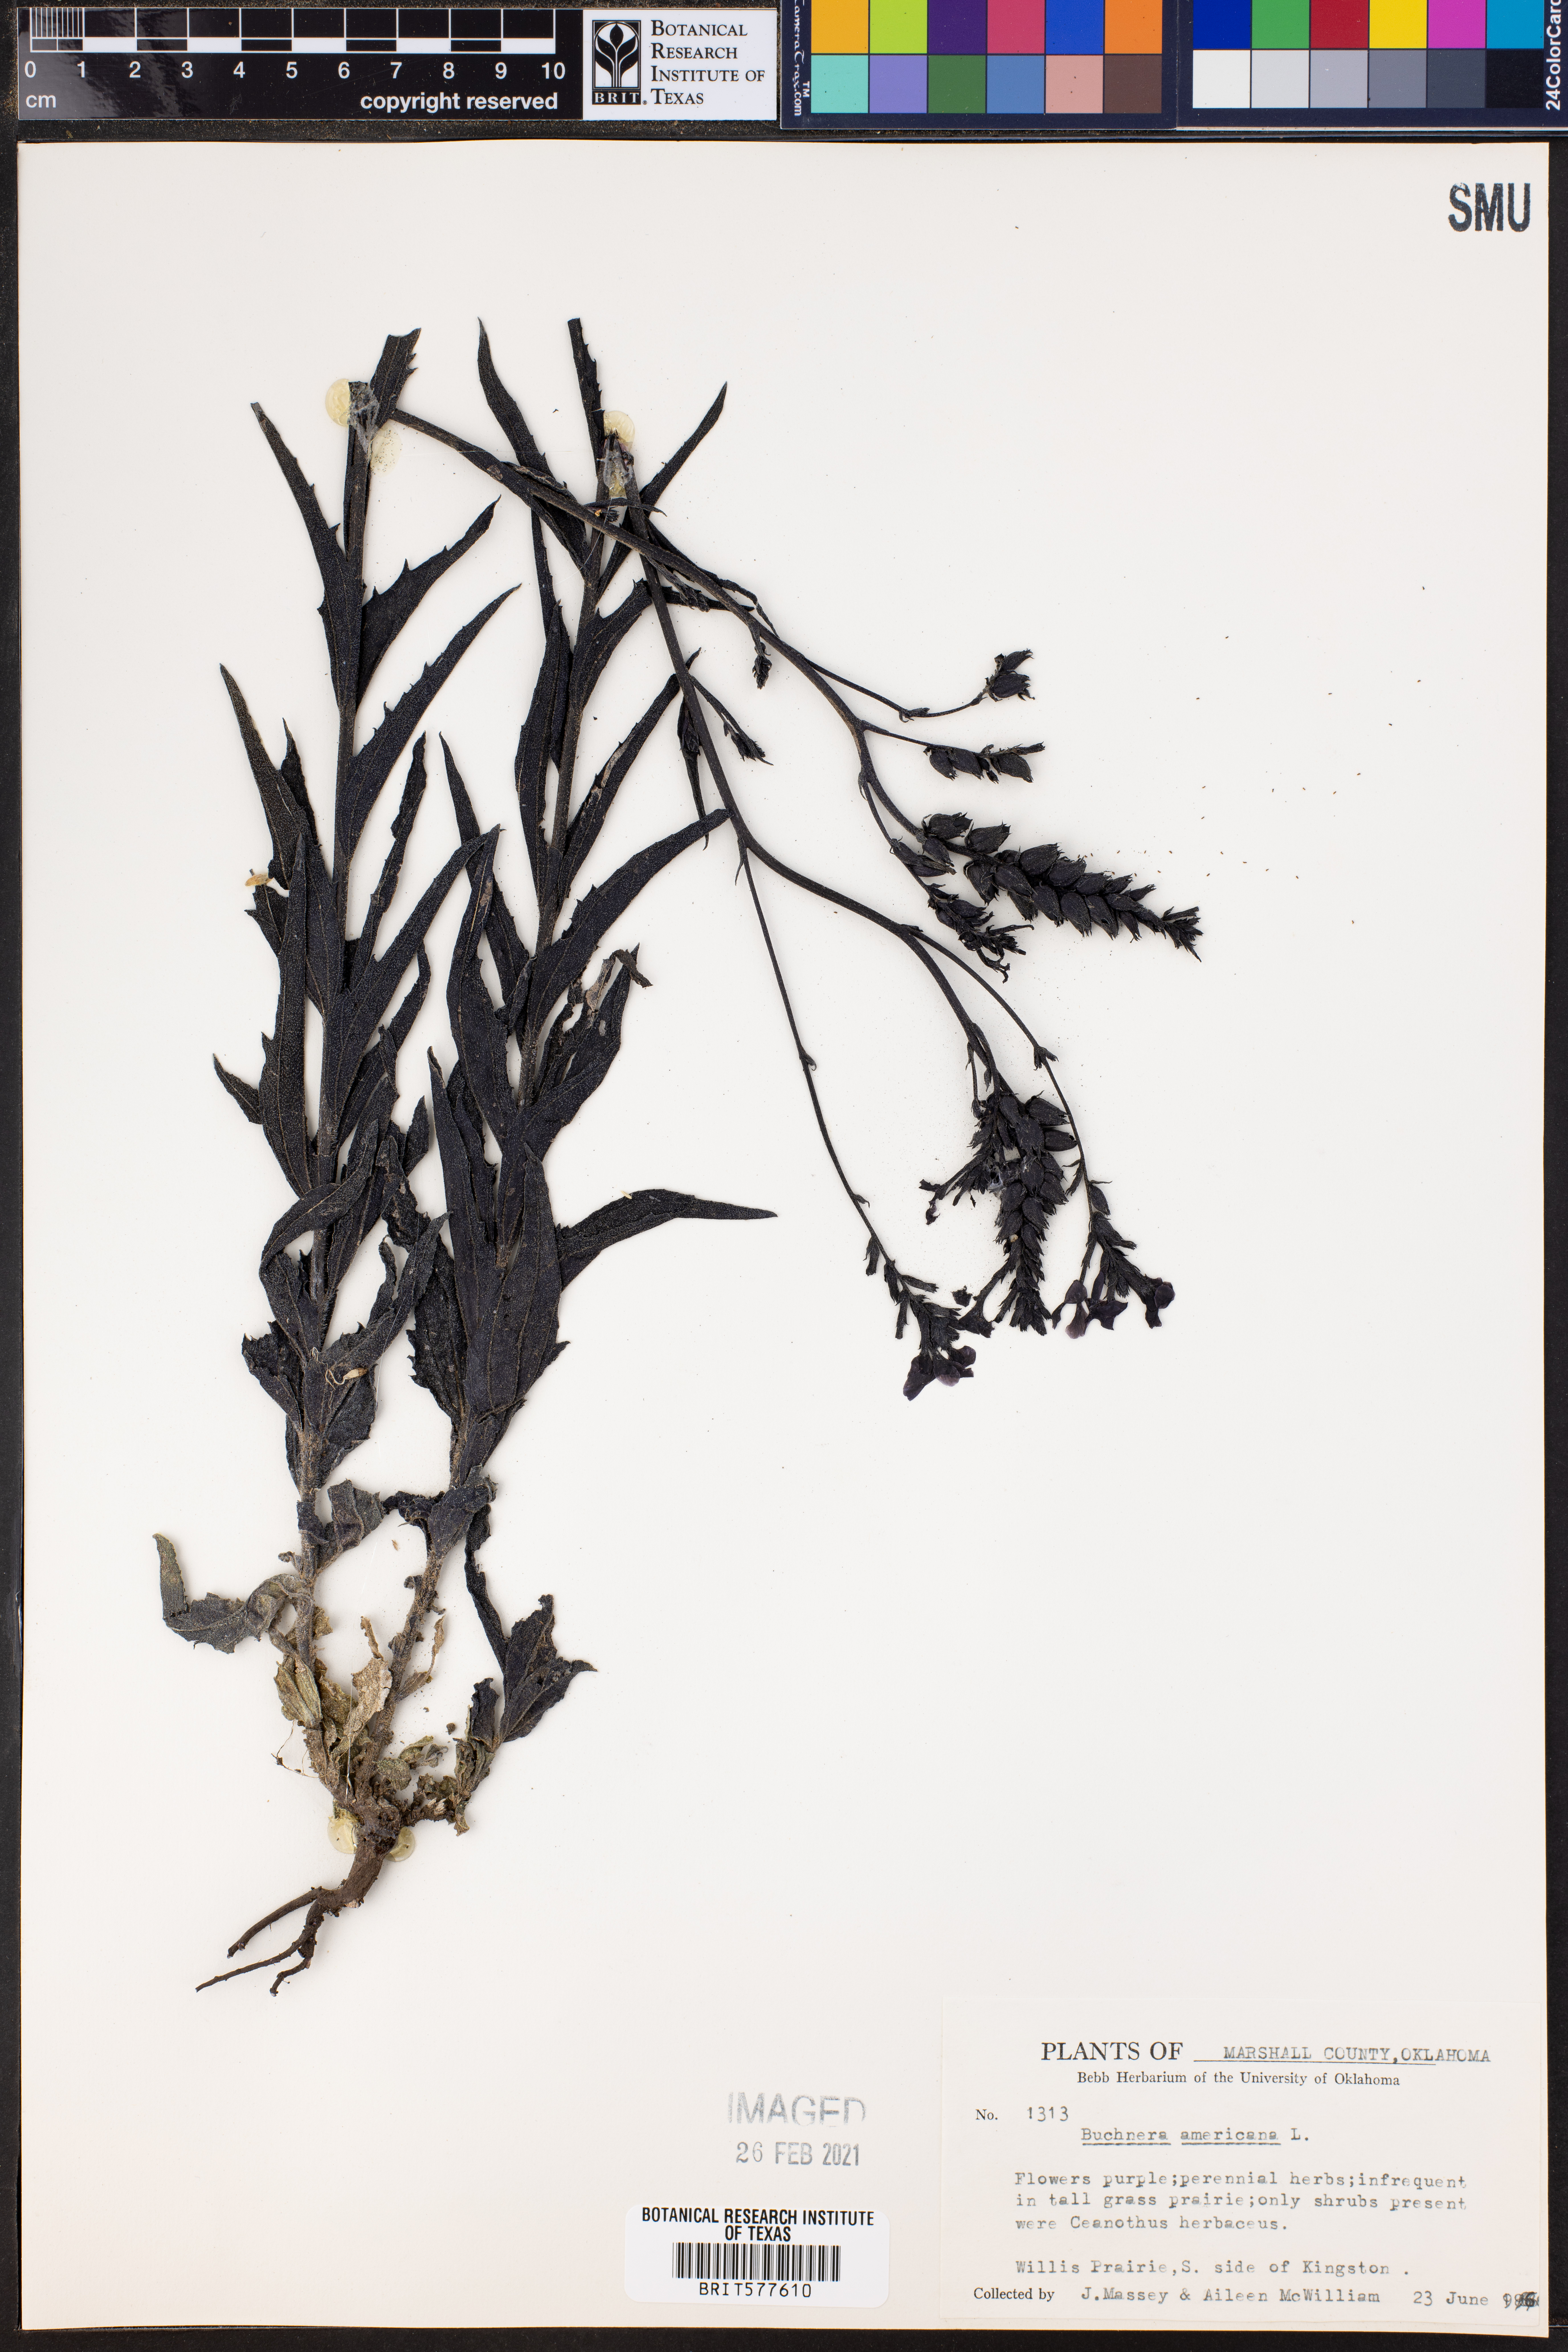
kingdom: Plantae
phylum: Tracheophyta
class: Magnoliopsida
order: Lamiales
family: Orobanchaceae
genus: Buchnera
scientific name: Buchnera americana
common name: American bluehearts
